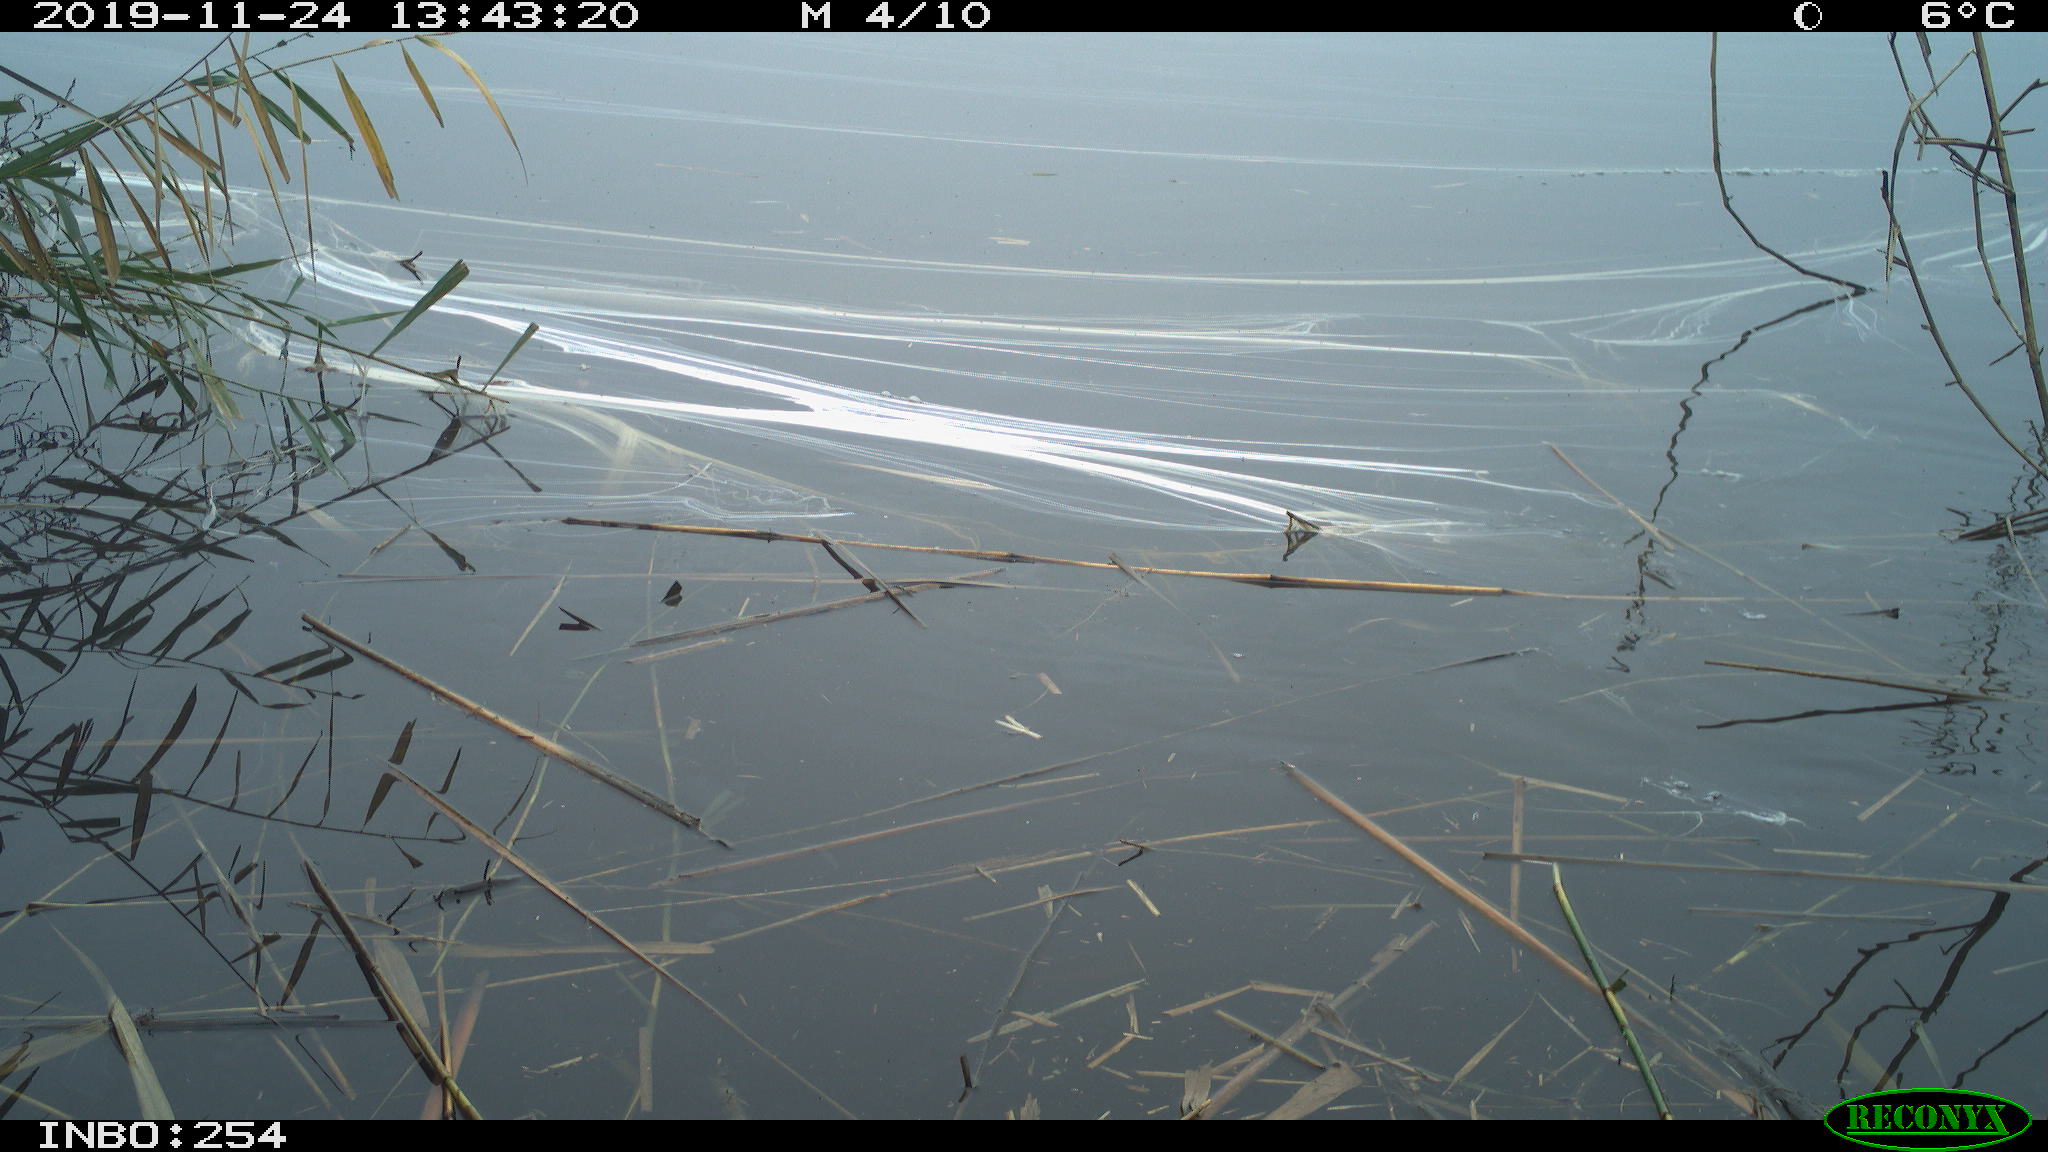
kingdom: Animalia
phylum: Chordata
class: Aves
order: Gruiformes
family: Rallidae
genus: Gallinula
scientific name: Gallinula chloropus
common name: Common moorhen
